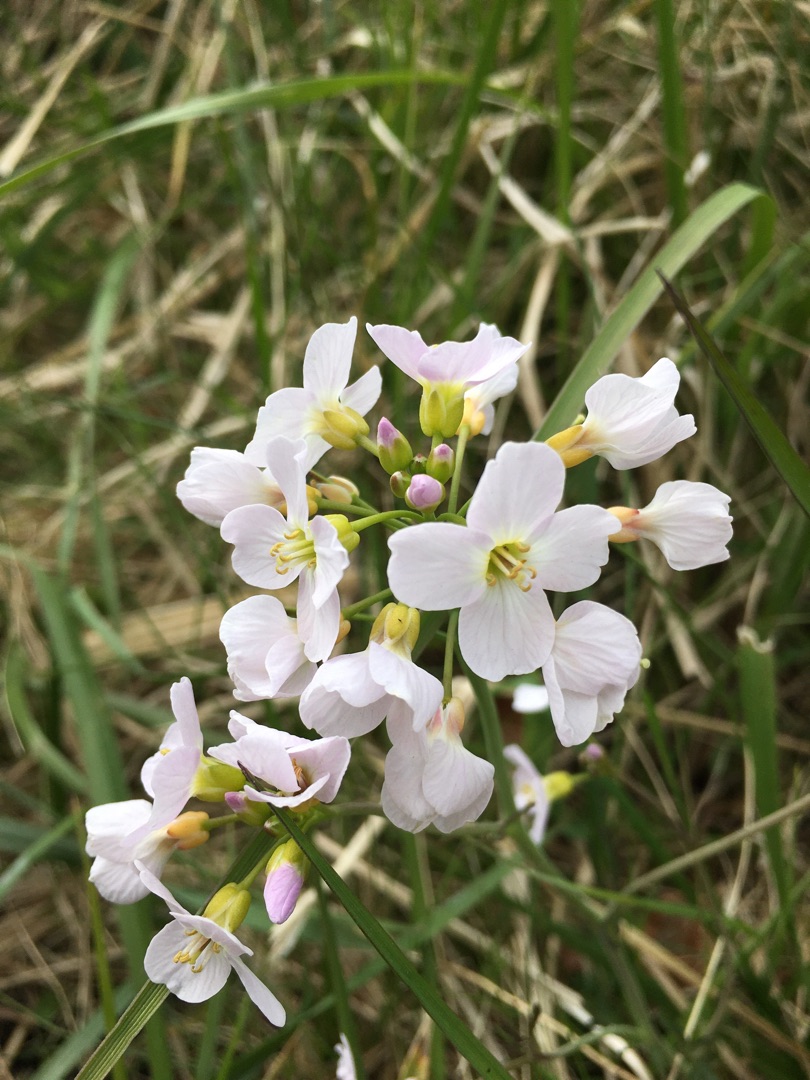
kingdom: Plantae
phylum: Tracheophyta
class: Magnoliopsida
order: Brassicales
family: Brassicaceae
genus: Cardamine
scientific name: Cardamine pratensis
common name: Engkarse
